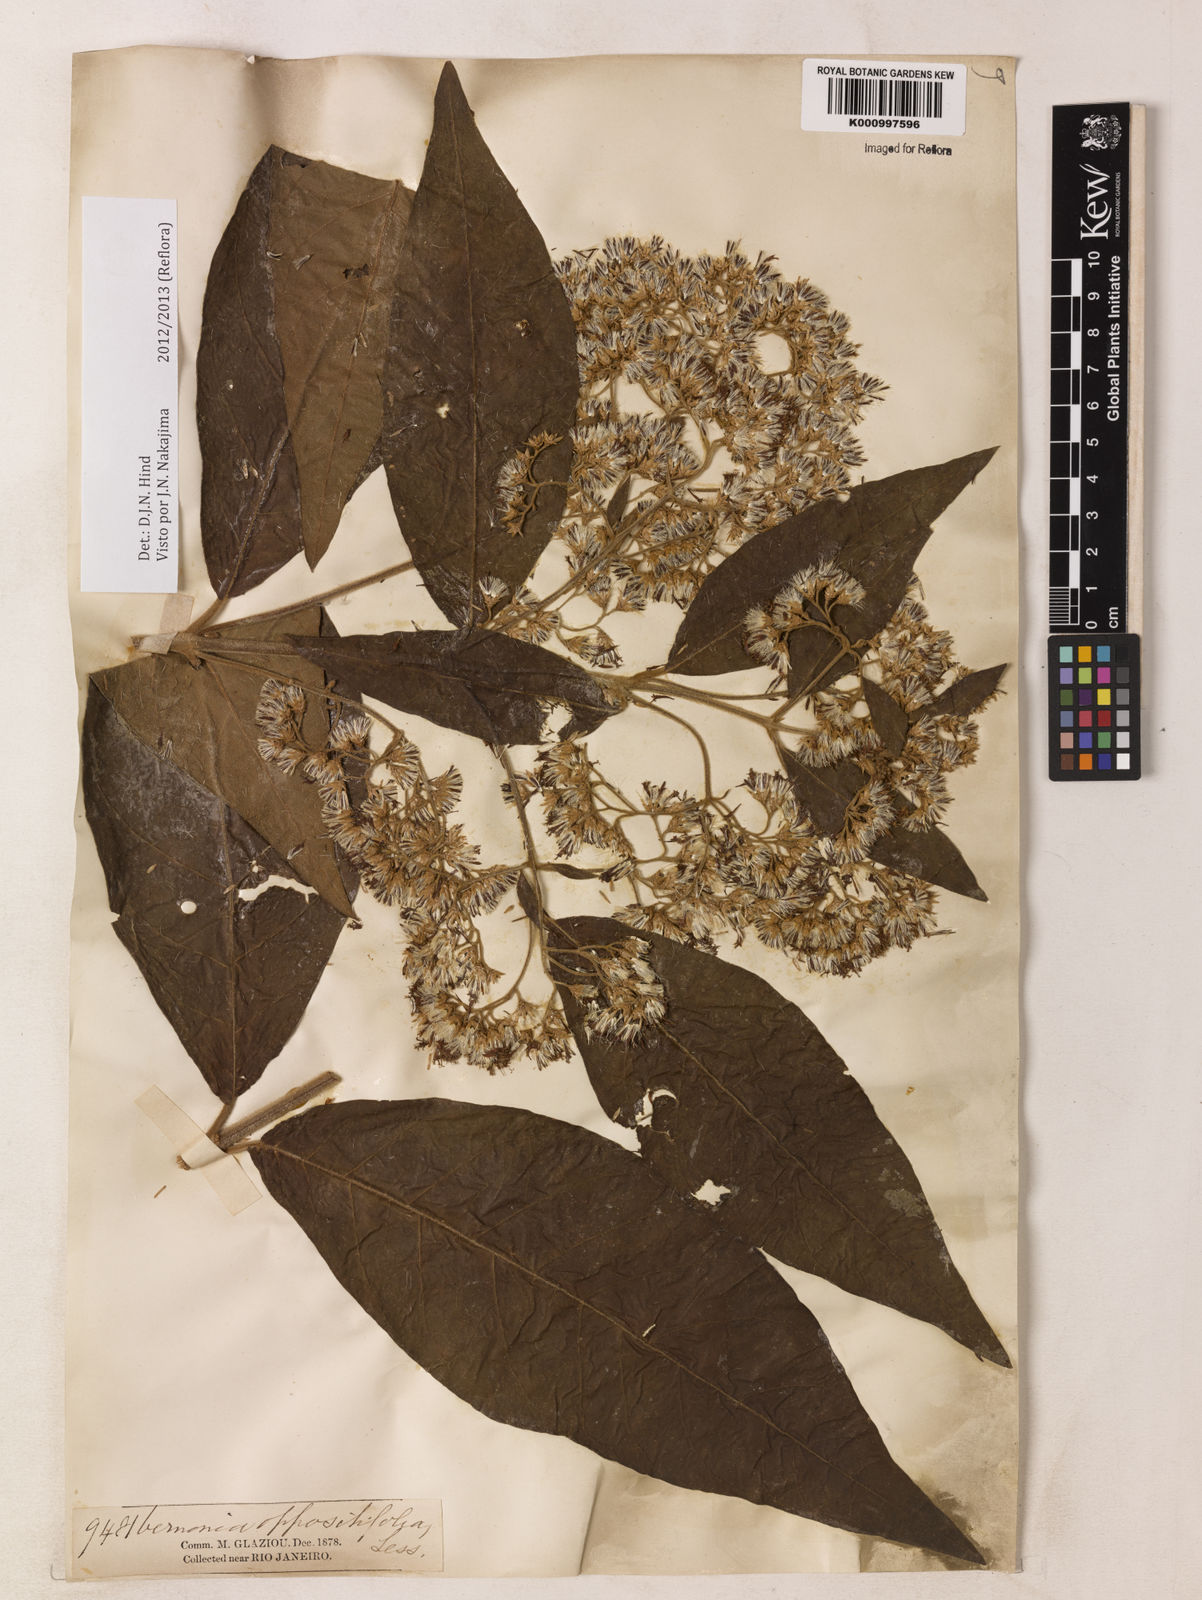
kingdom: Plantae
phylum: Tracheophyta
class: Magnoliopsida
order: Asterales
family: Asteraceae
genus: Critoniopsis
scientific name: Critoniopsis stellata
